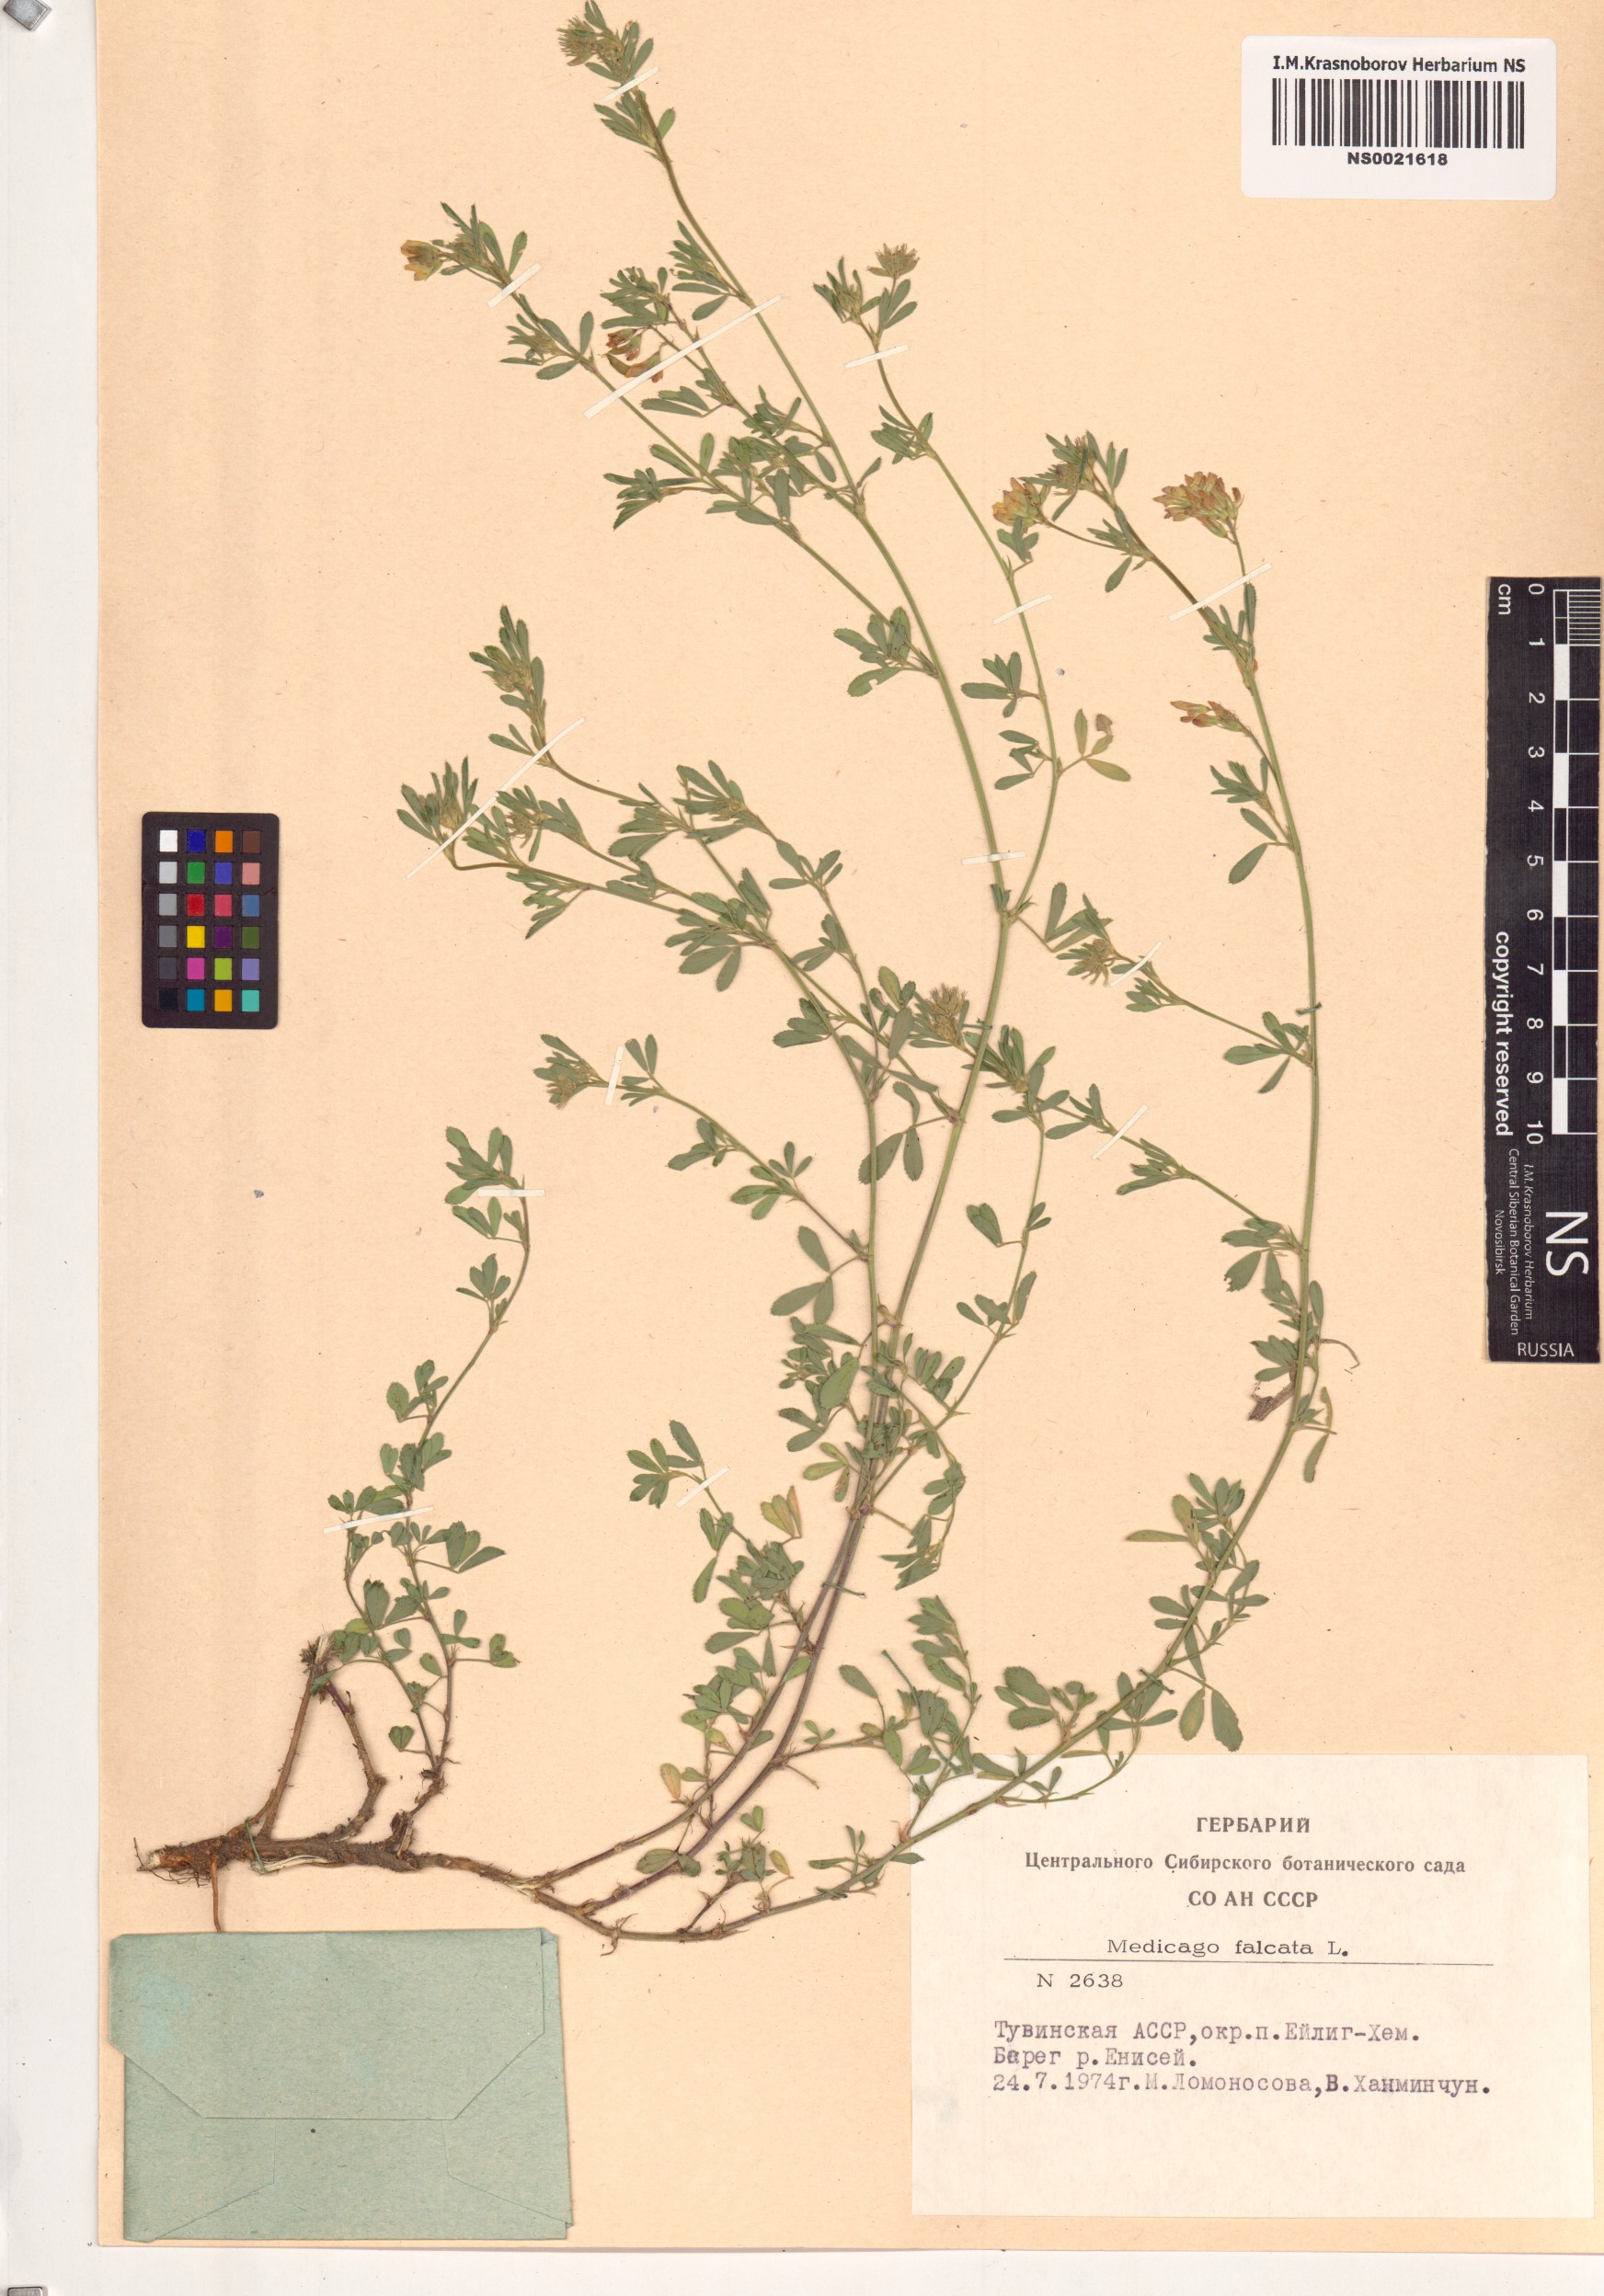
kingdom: Plantae
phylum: Tracheophyta
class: Magnoliopsida
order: Fabales
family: Fabaceae
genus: Medicago
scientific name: Medicago falcata
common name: Sickle medick
